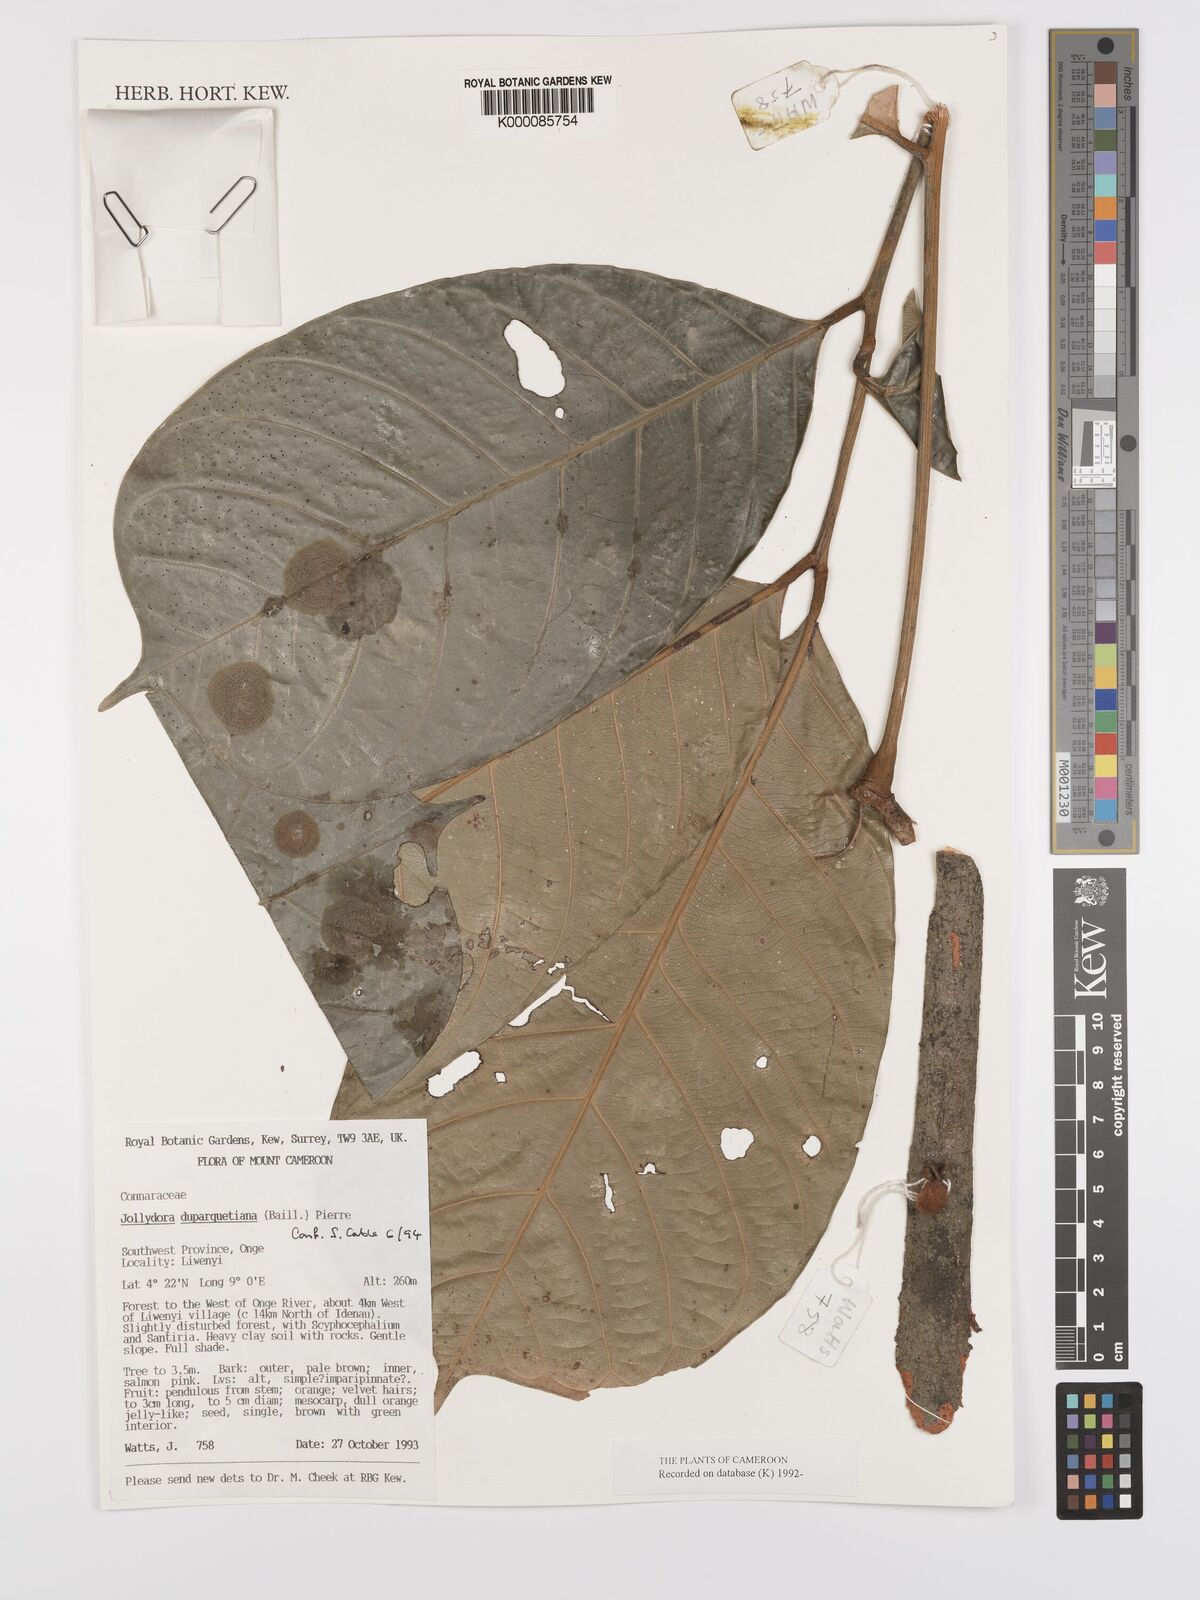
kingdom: Plantae
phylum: Tracheophyta
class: Magnoliopsida
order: Oxalidales
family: Connaraceae
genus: Jollydora
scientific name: Jollydora duparquetiana
